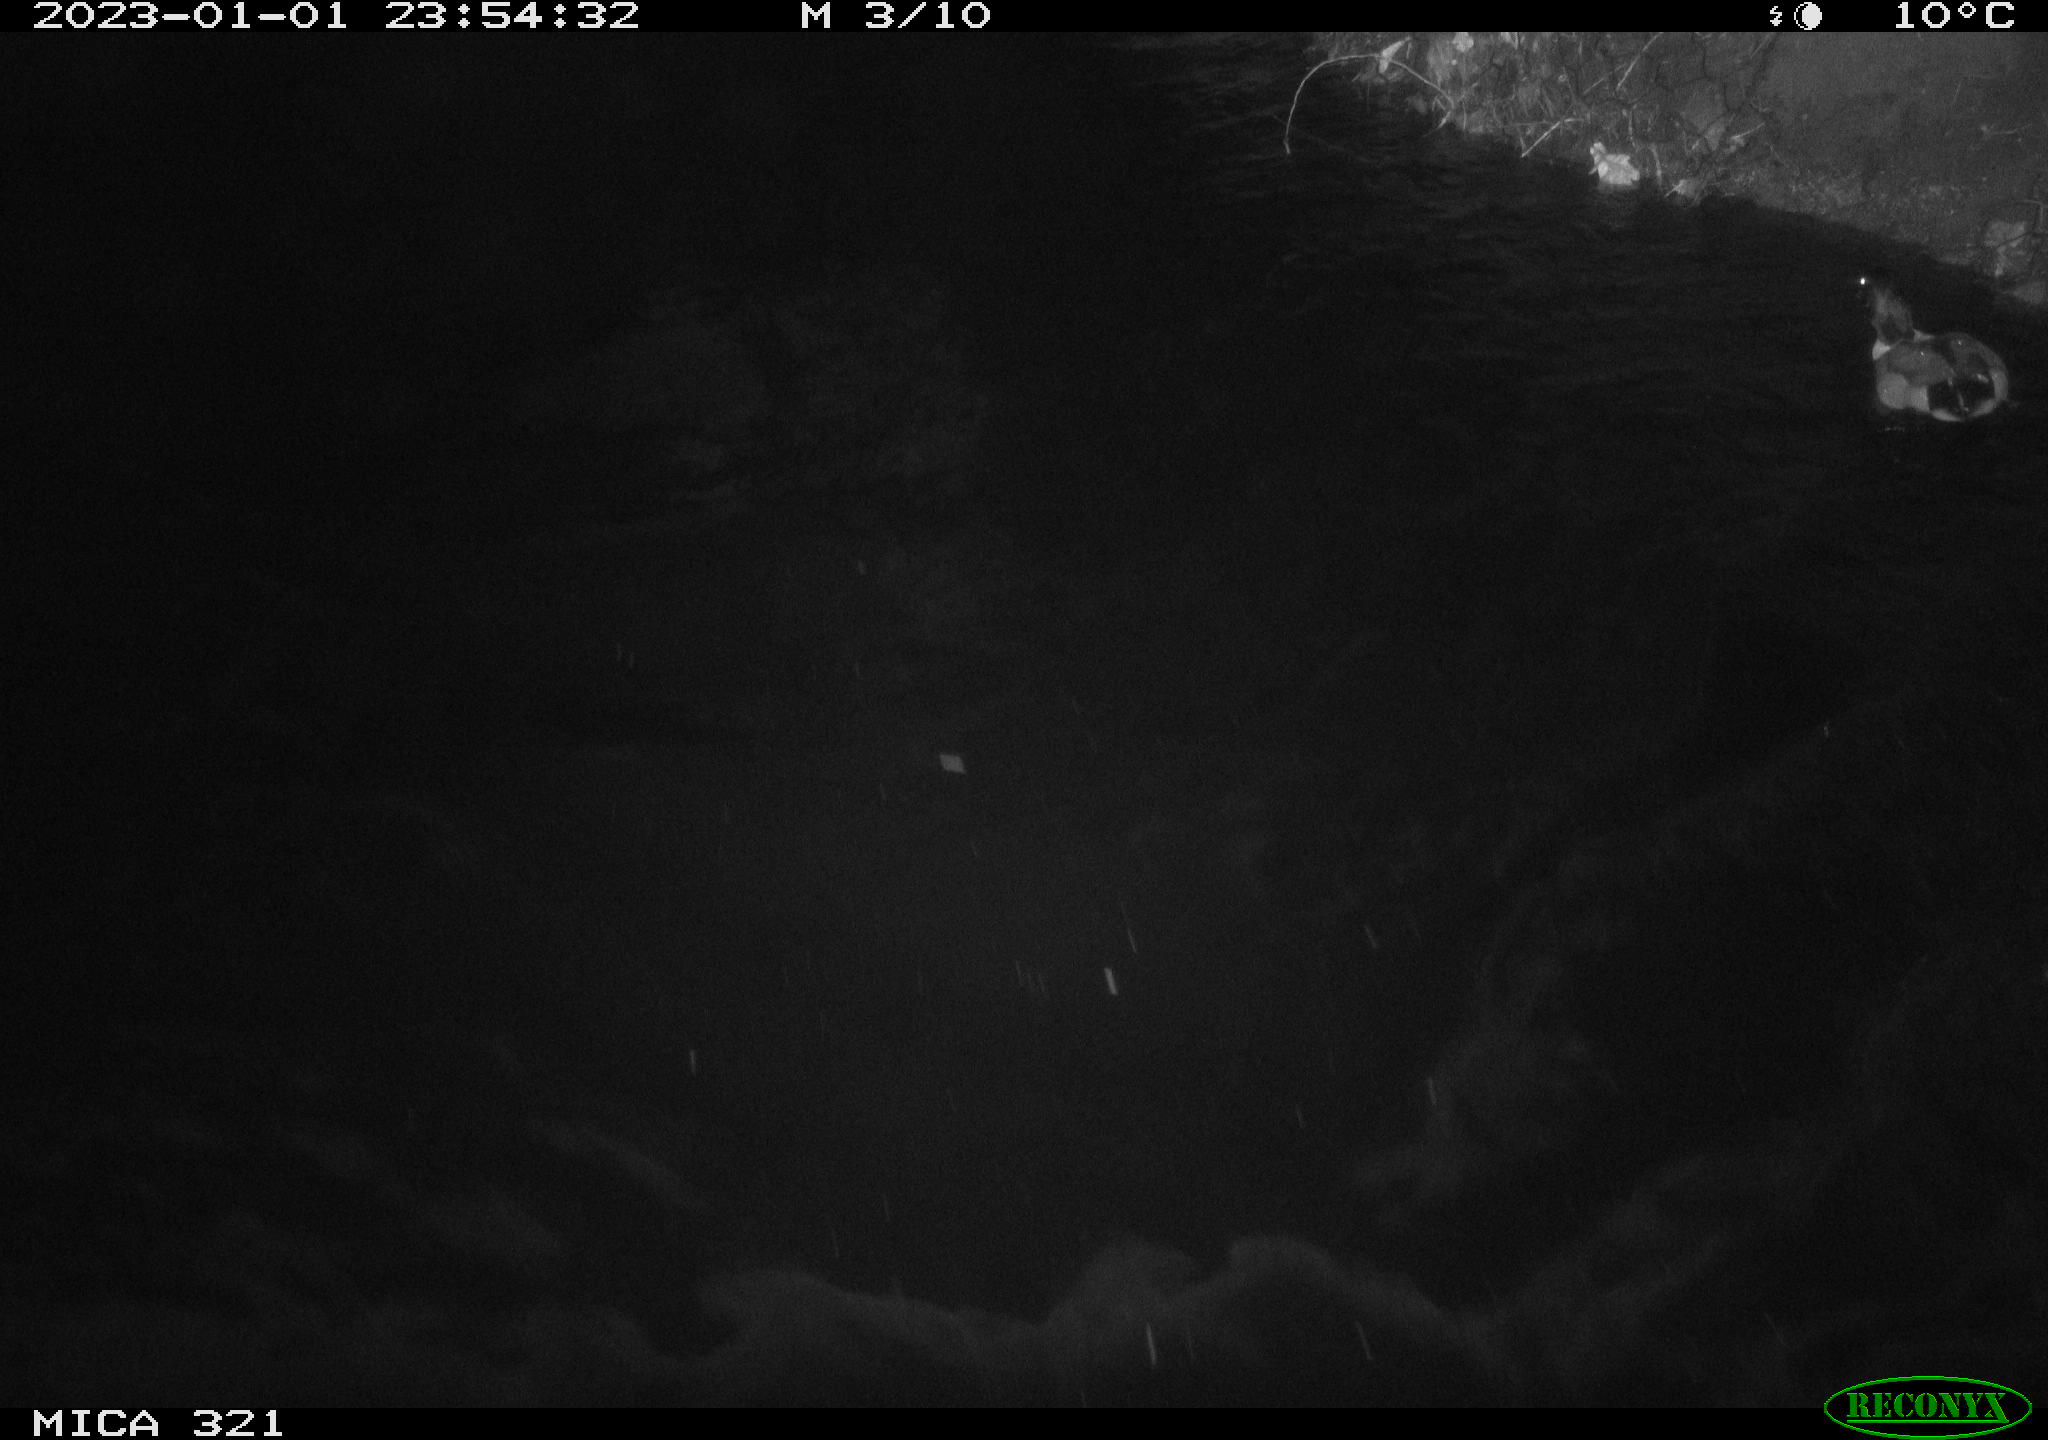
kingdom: Animalia
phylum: Chordata
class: Aves
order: Anseriformes
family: Anatidae
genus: Anas
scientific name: Anas
